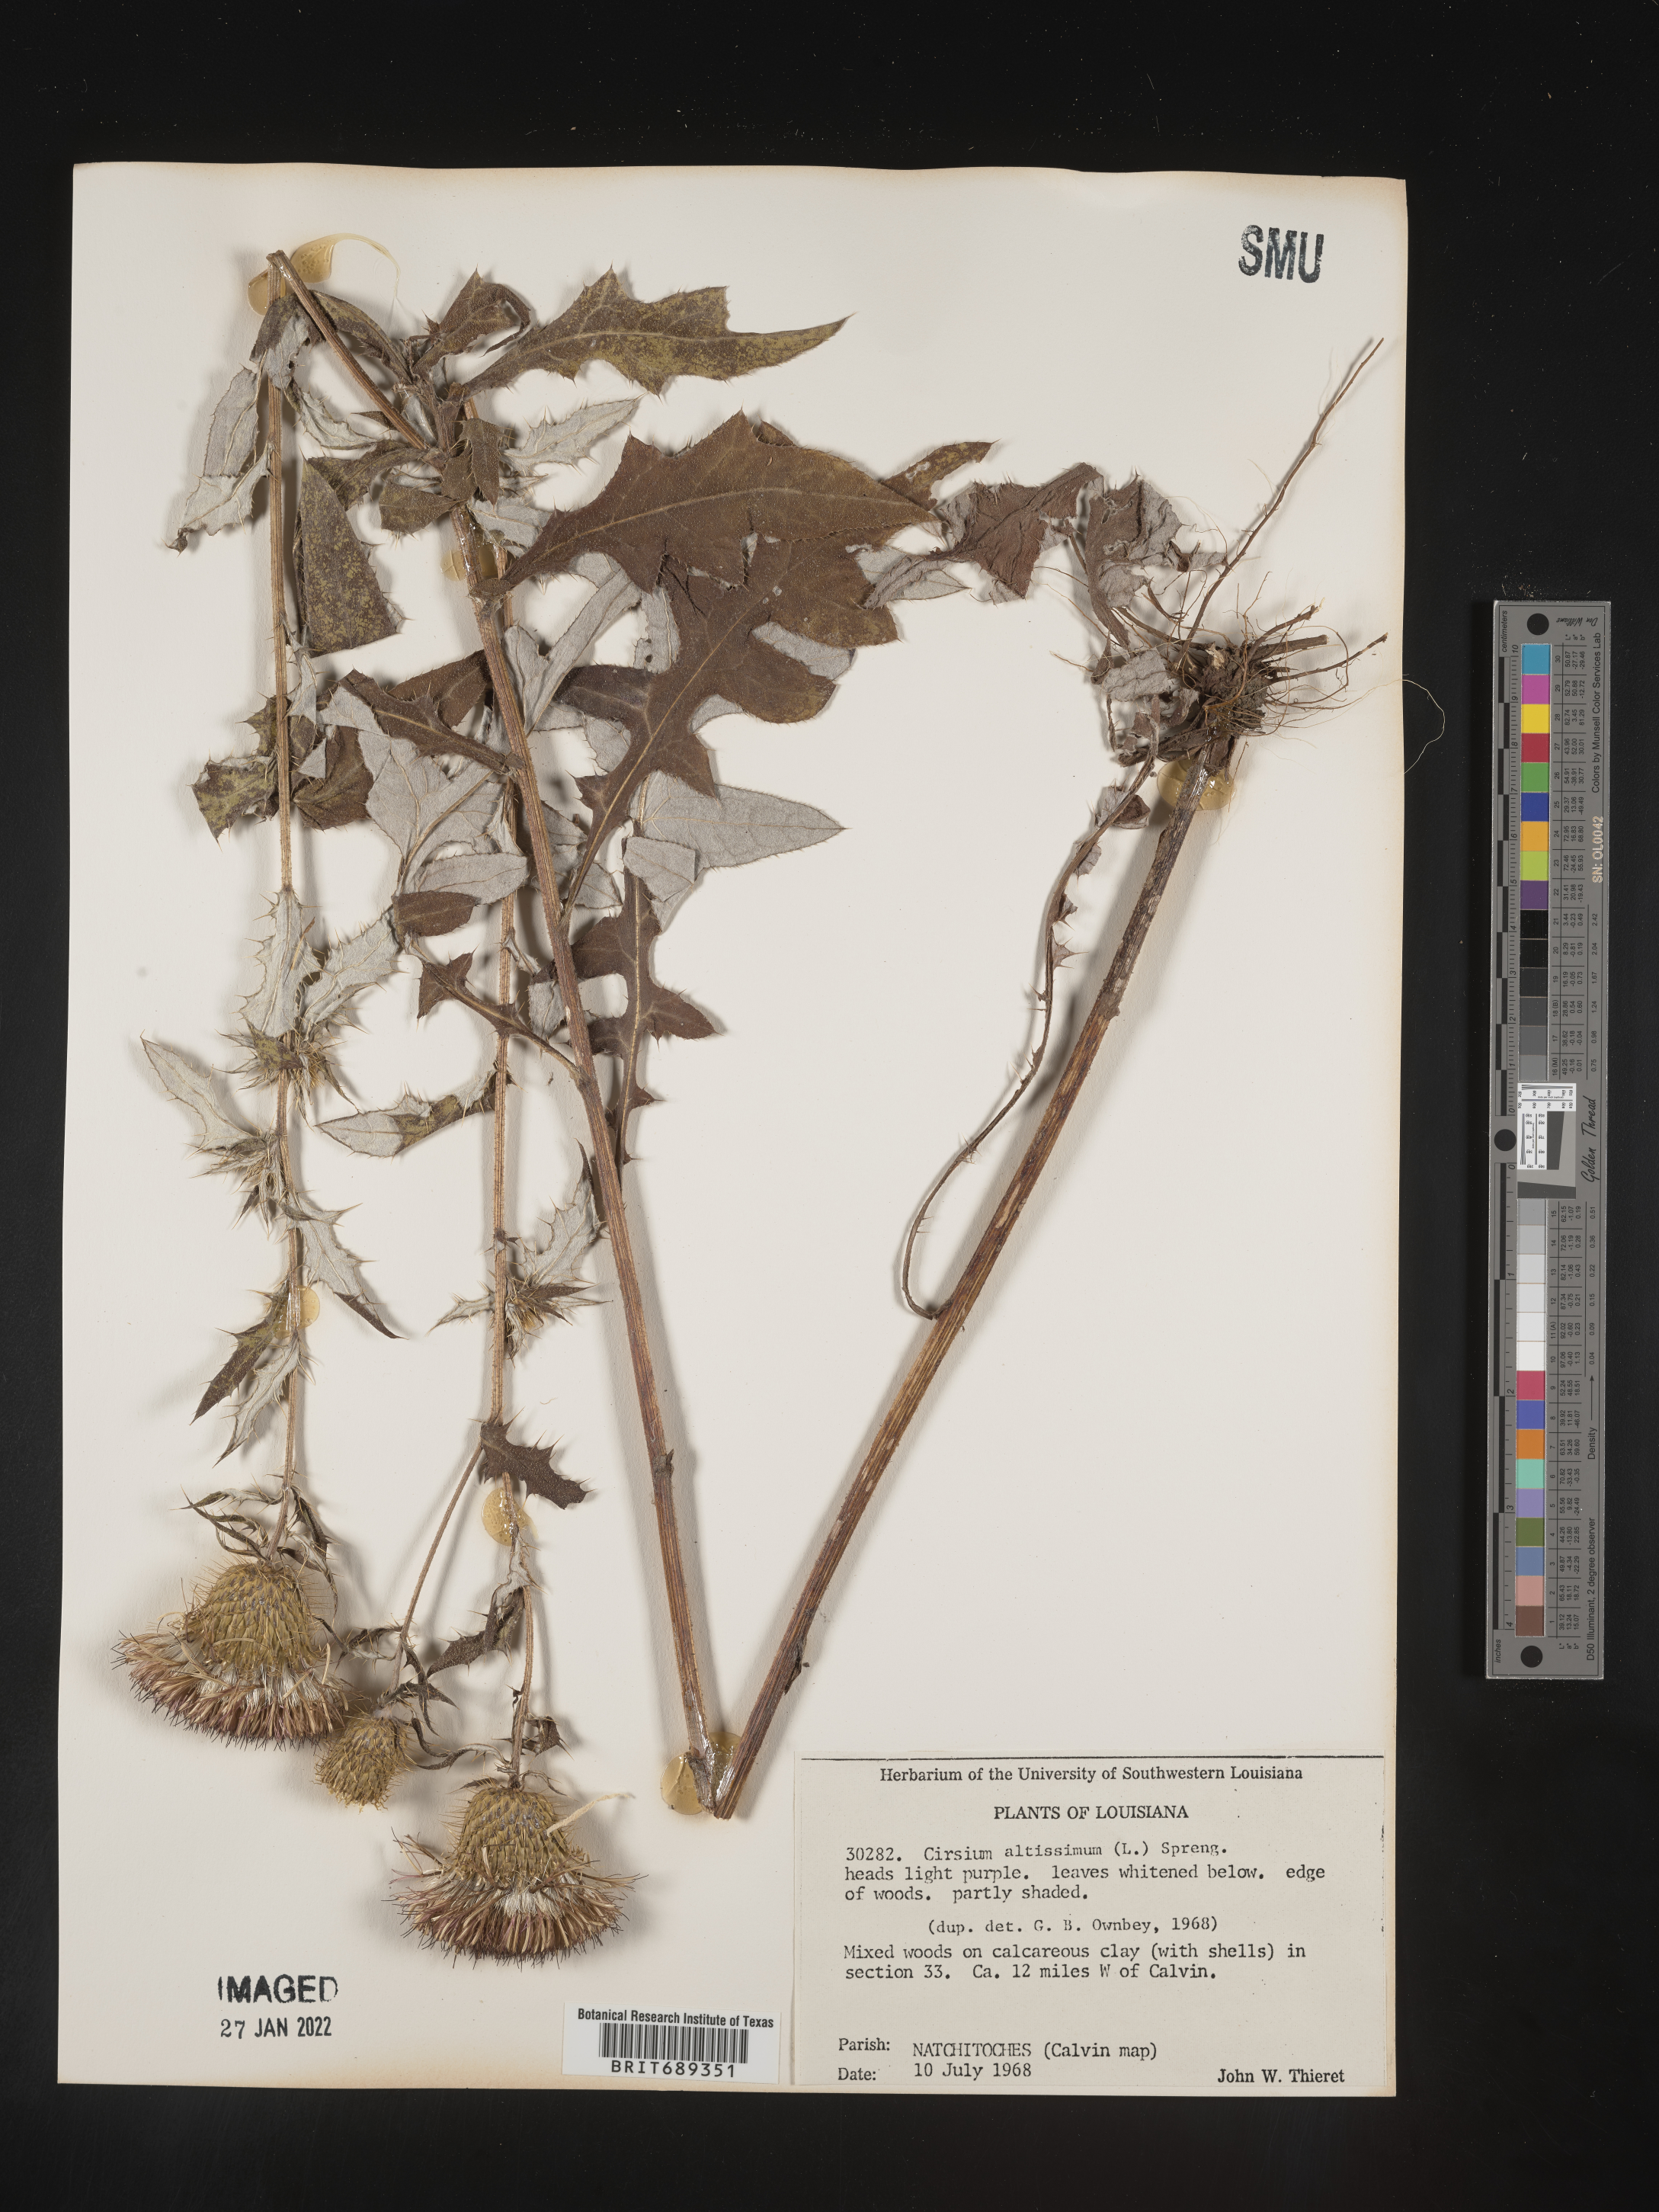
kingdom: Plantae
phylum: Tracheophyta
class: Magnoliopsida
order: Asterales
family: Asteraceae
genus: Cirsium
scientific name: Cirsium altissimum
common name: Roadside thistle
